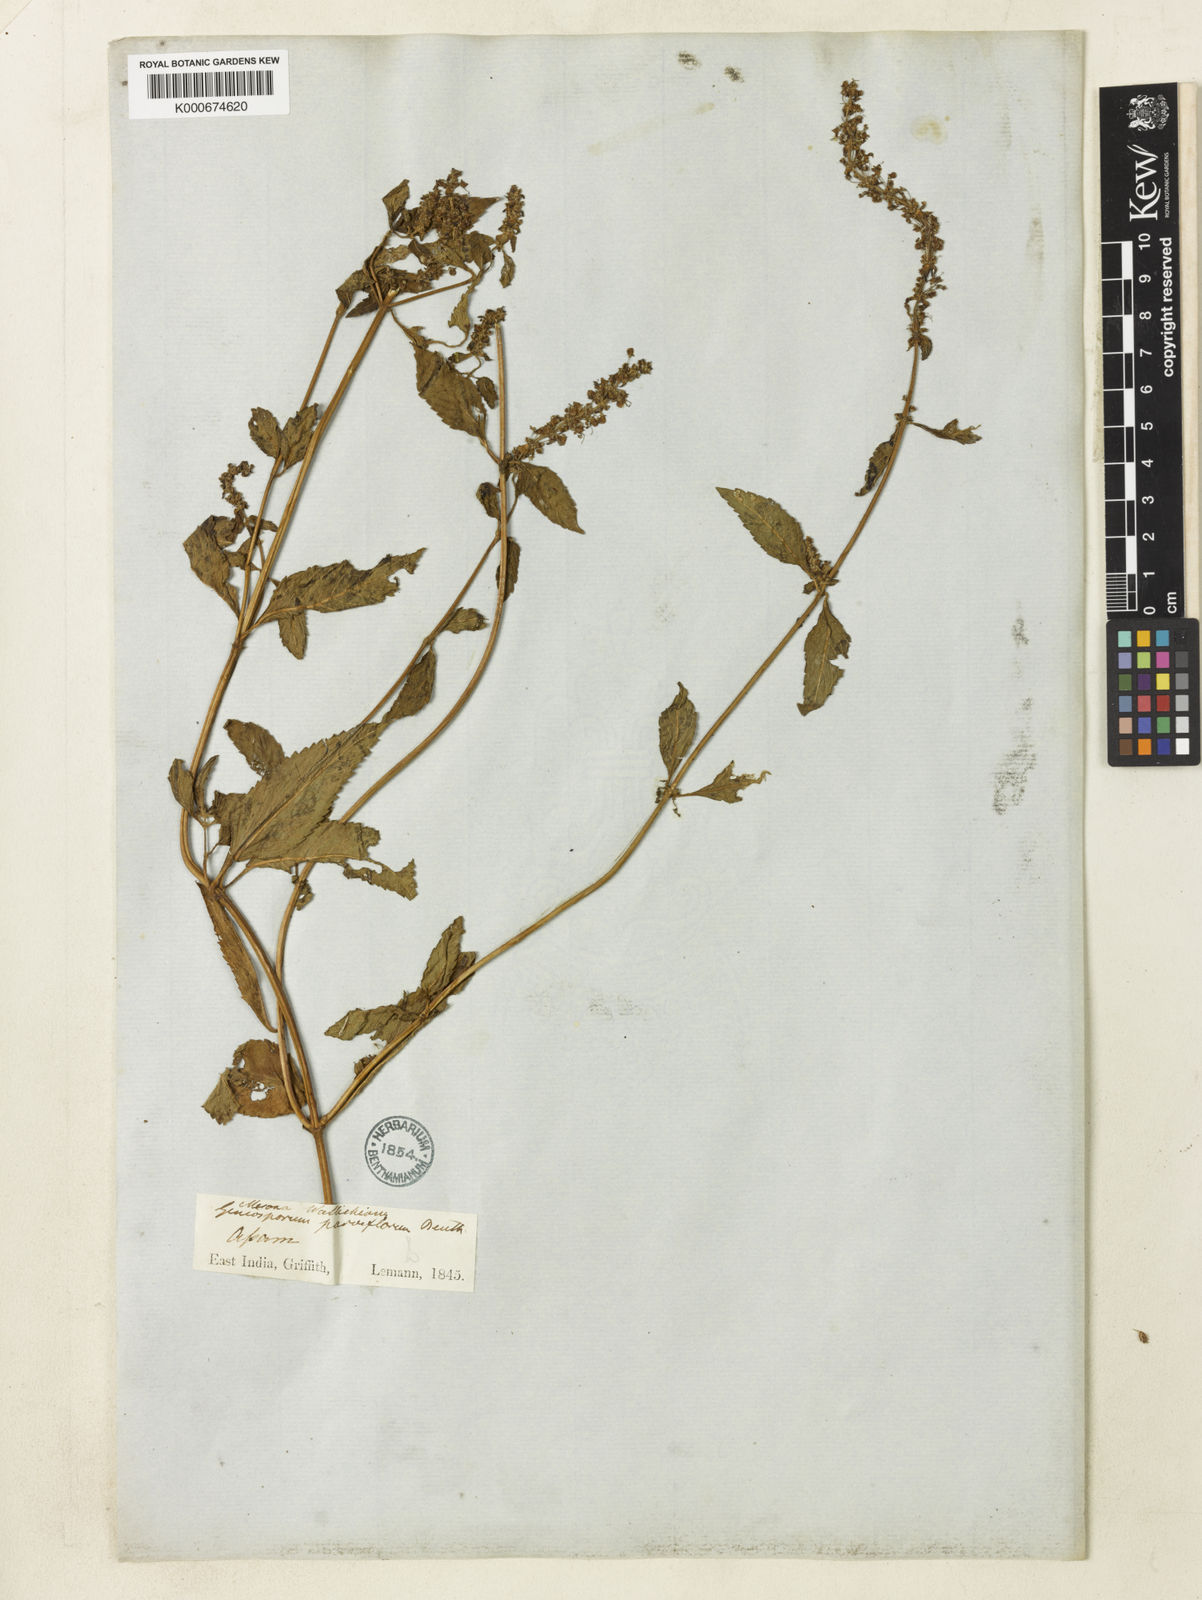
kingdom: Plantae
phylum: Tracheophyta
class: Magnoliopsida
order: Lamiales
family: Lamiaceae
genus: Platostoma
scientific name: Platostoma palustre
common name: Black cincau
